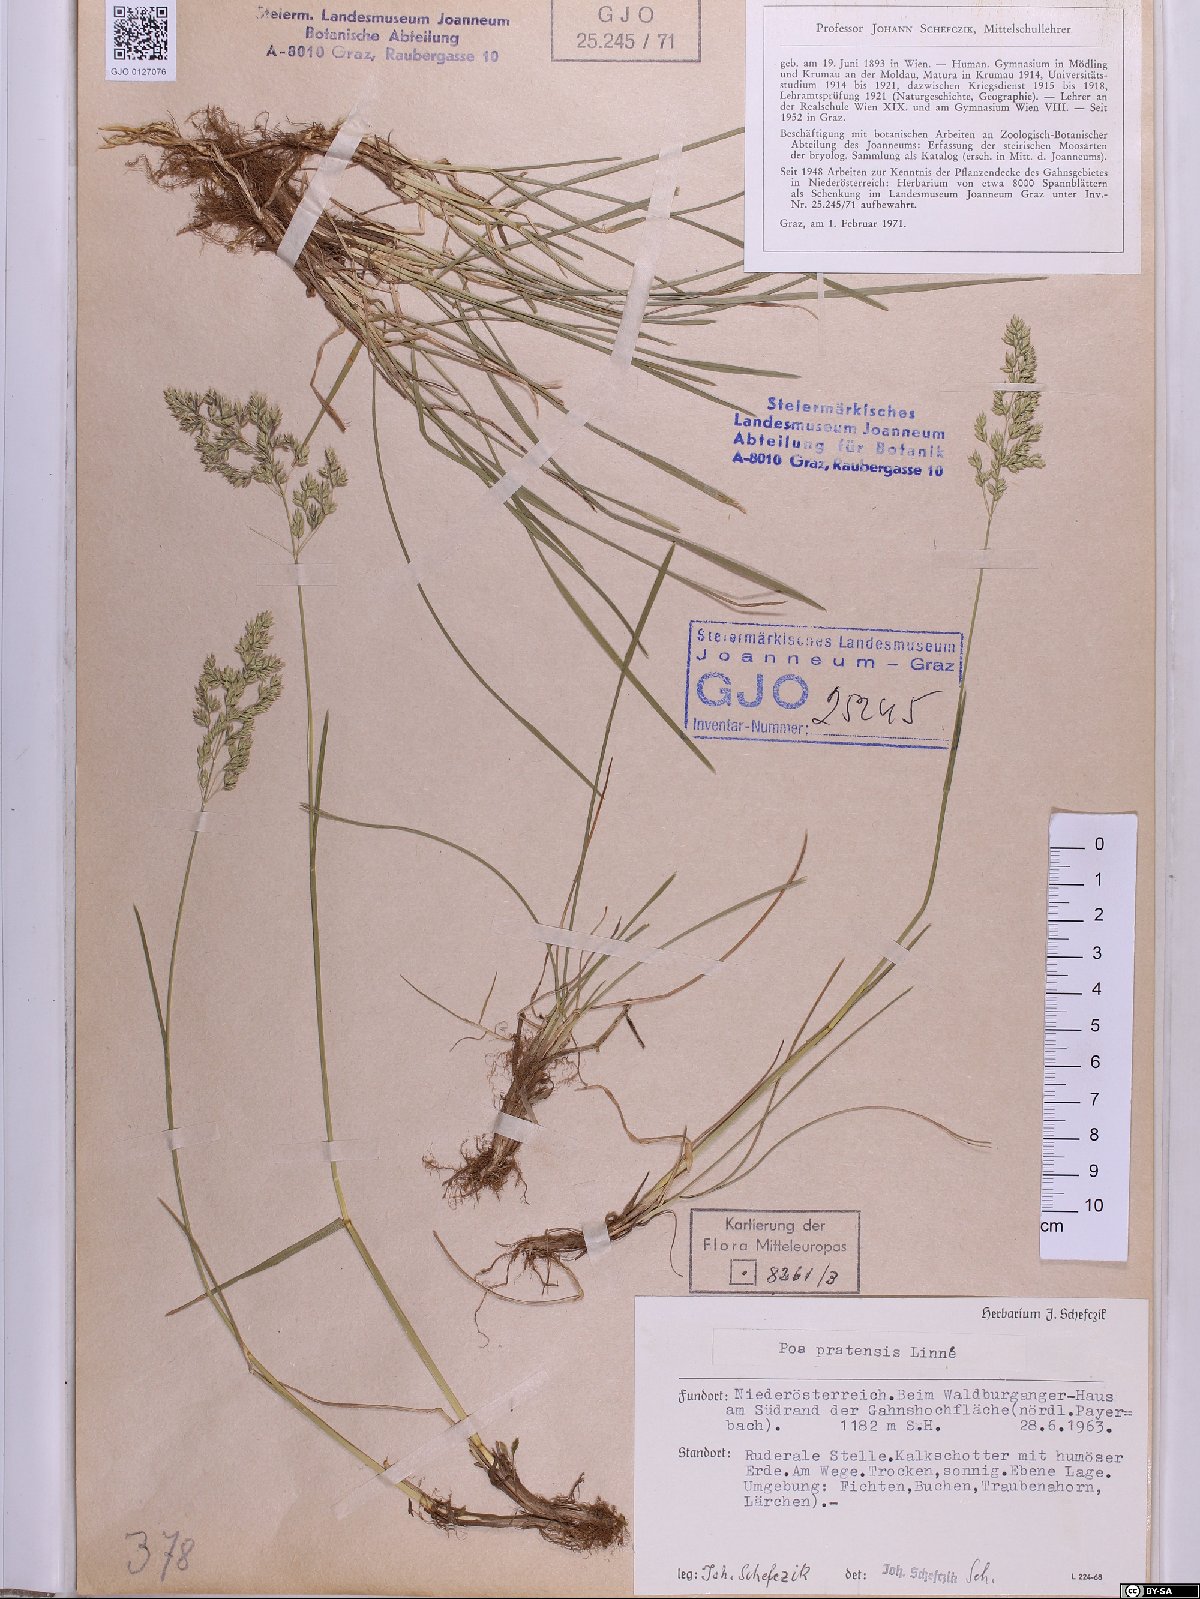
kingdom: Plantae
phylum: Tracheophyta
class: Liliopsida
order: Poales
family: Poaceae
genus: Poa
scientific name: Poa pratensis
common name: Kentucky bluegrass
